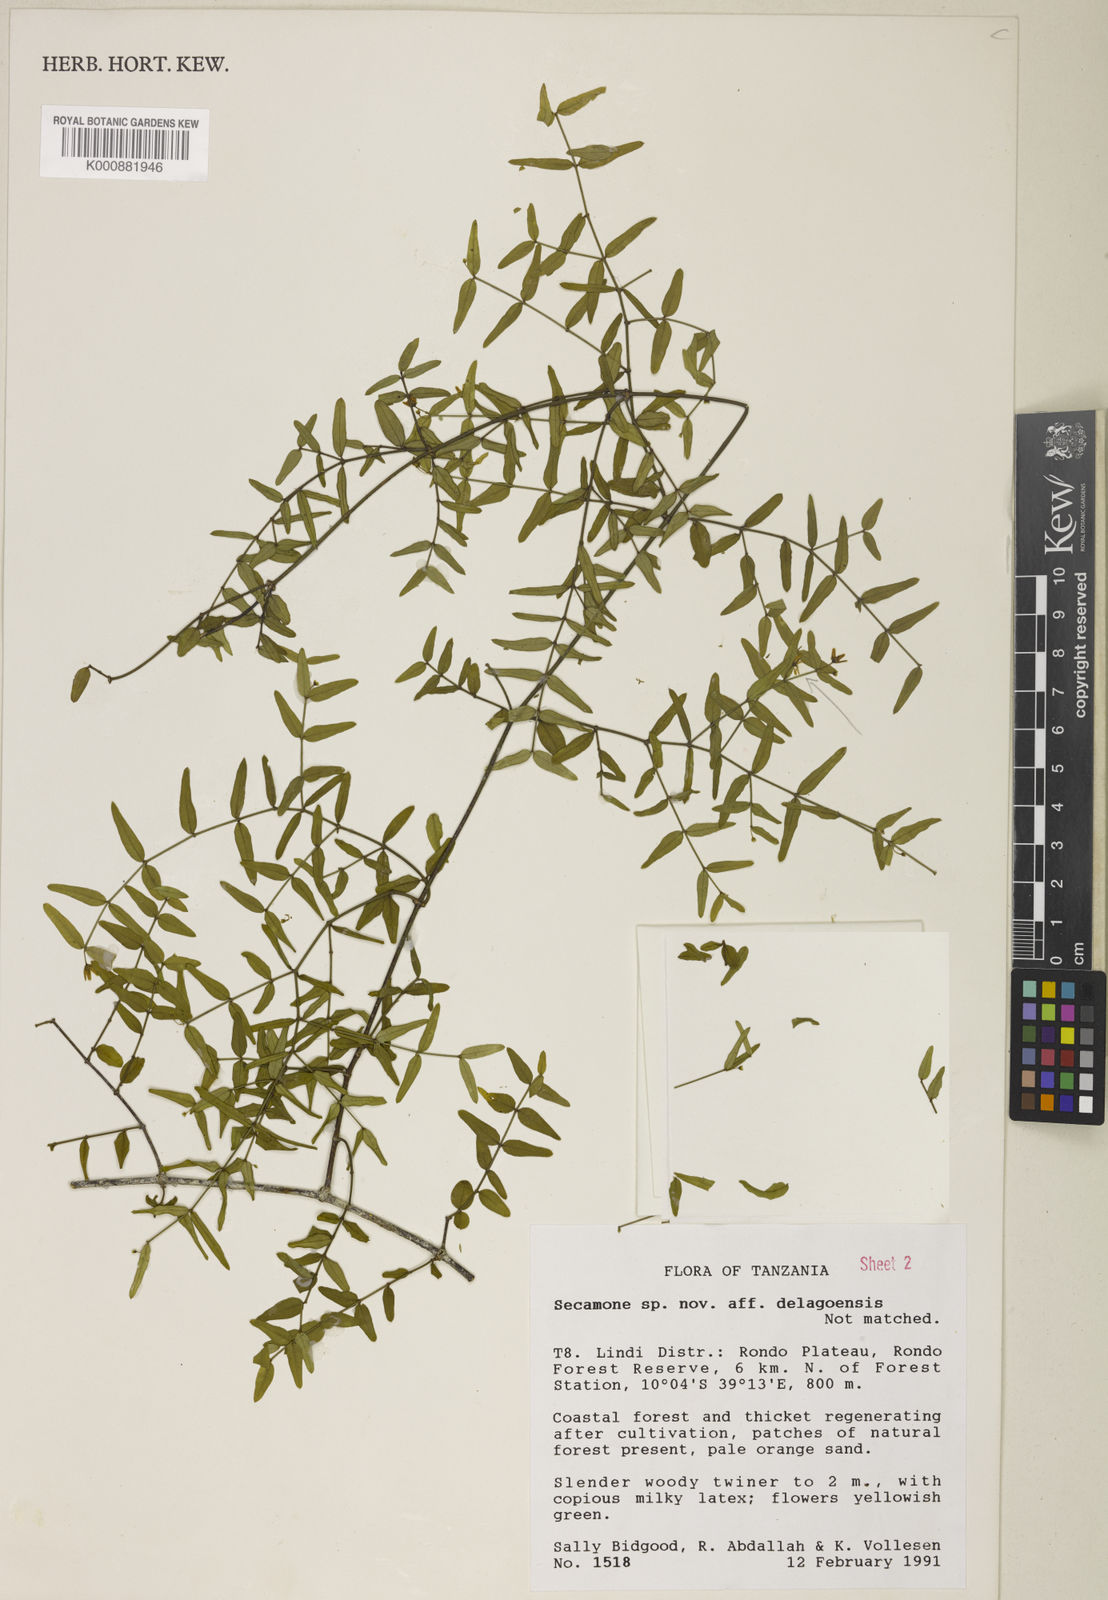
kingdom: Plantae
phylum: Tracheophyta
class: Magnoliopsida
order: Gentianales
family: Apocynaceae
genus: Secamone
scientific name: Secamone clavistyla
